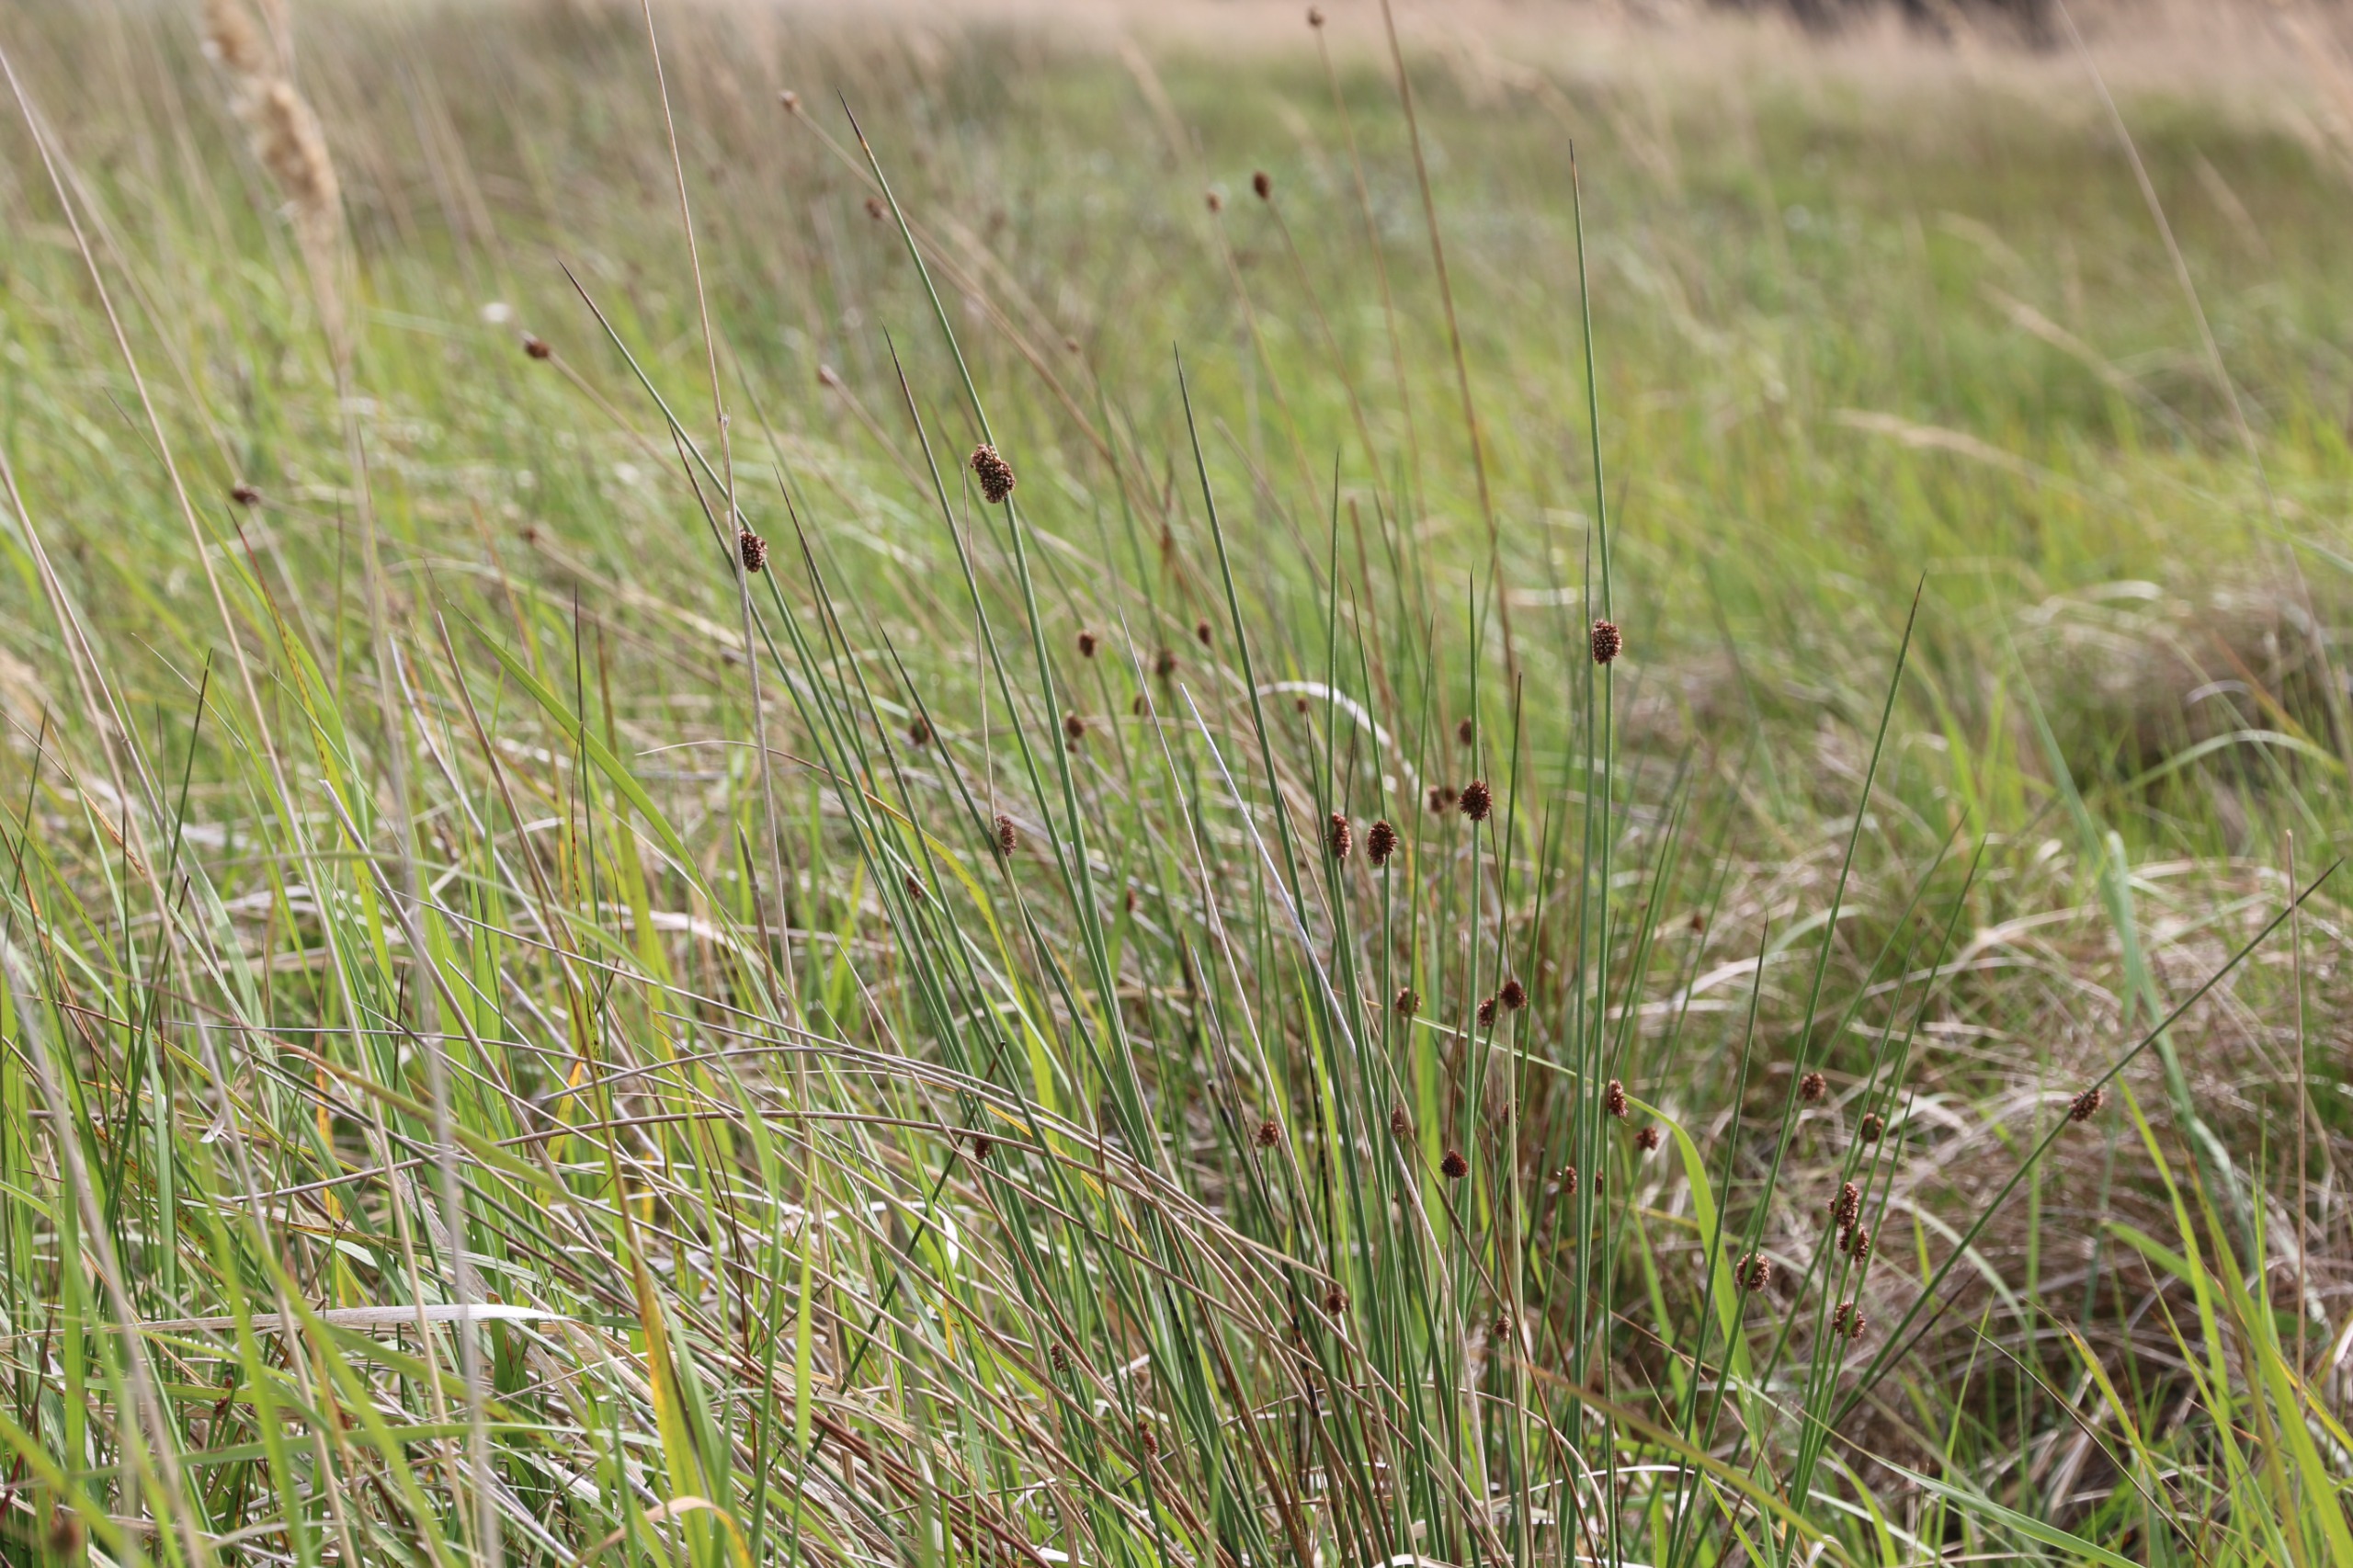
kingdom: Plantae
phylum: Tracheophyta
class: Liliopsida
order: Poales
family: Juncaceae
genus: Juncus
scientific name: Juncus conglomeratus
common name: Knop-siv
